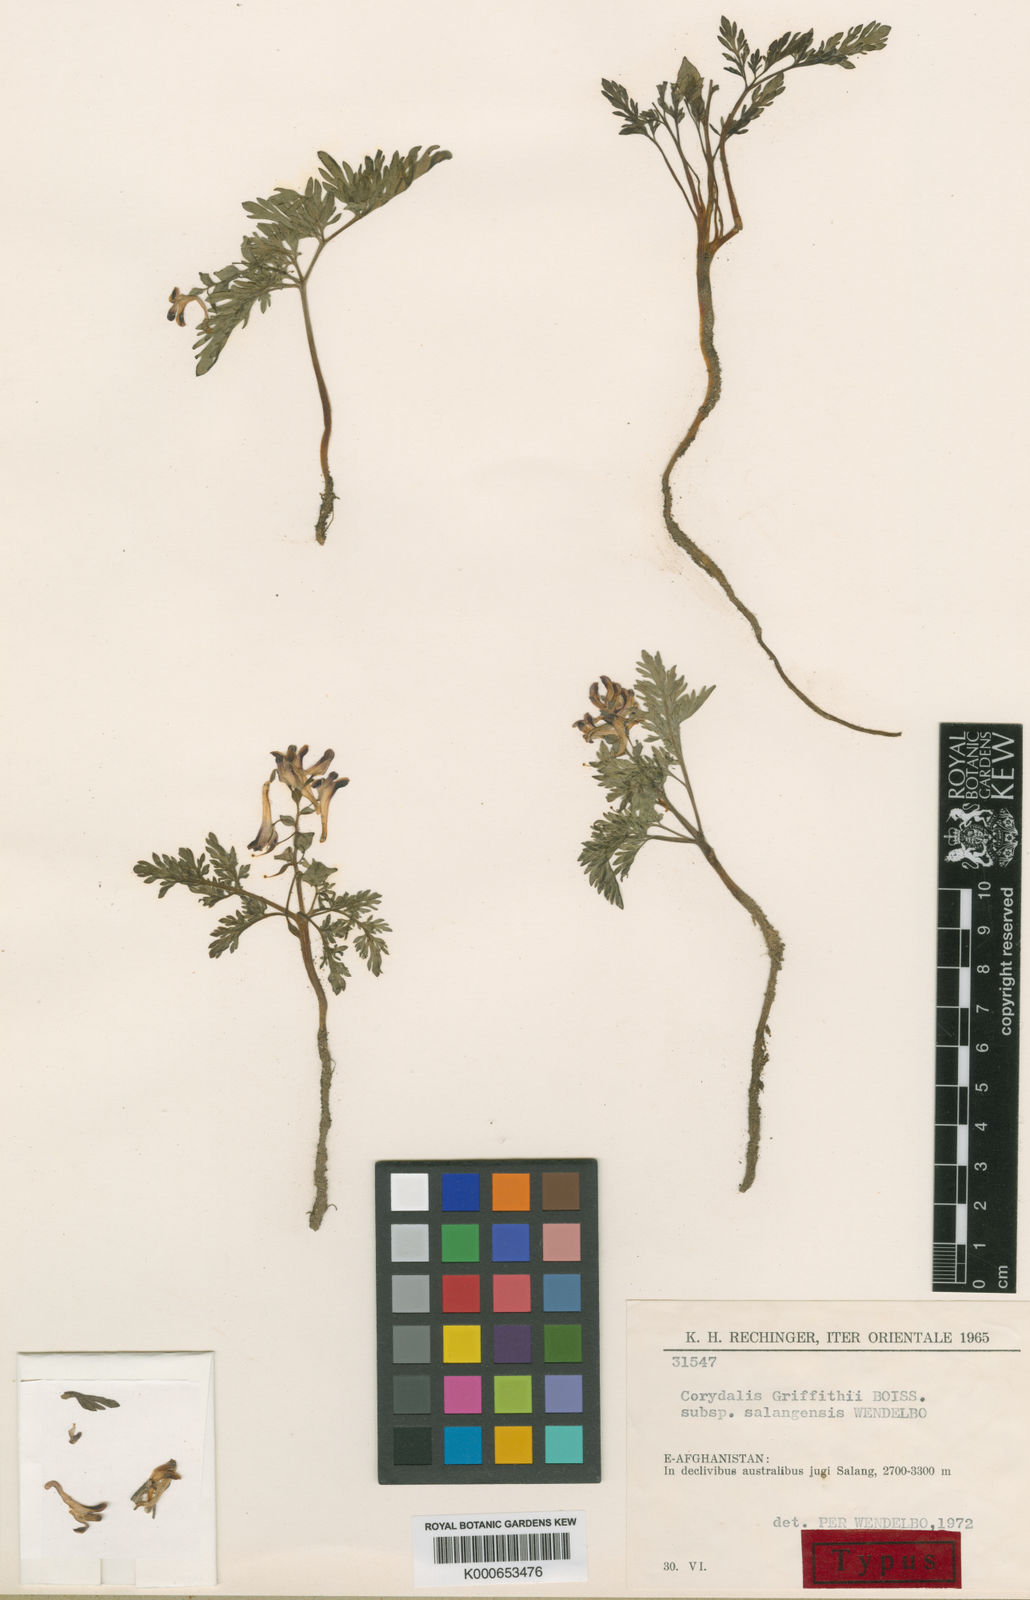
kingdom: Plantae
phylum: Tracheophyta
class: Magnoliopsida
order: Ranunculales
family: Papaveraceae
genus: Corydalis
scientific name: Corydalis griffithii
